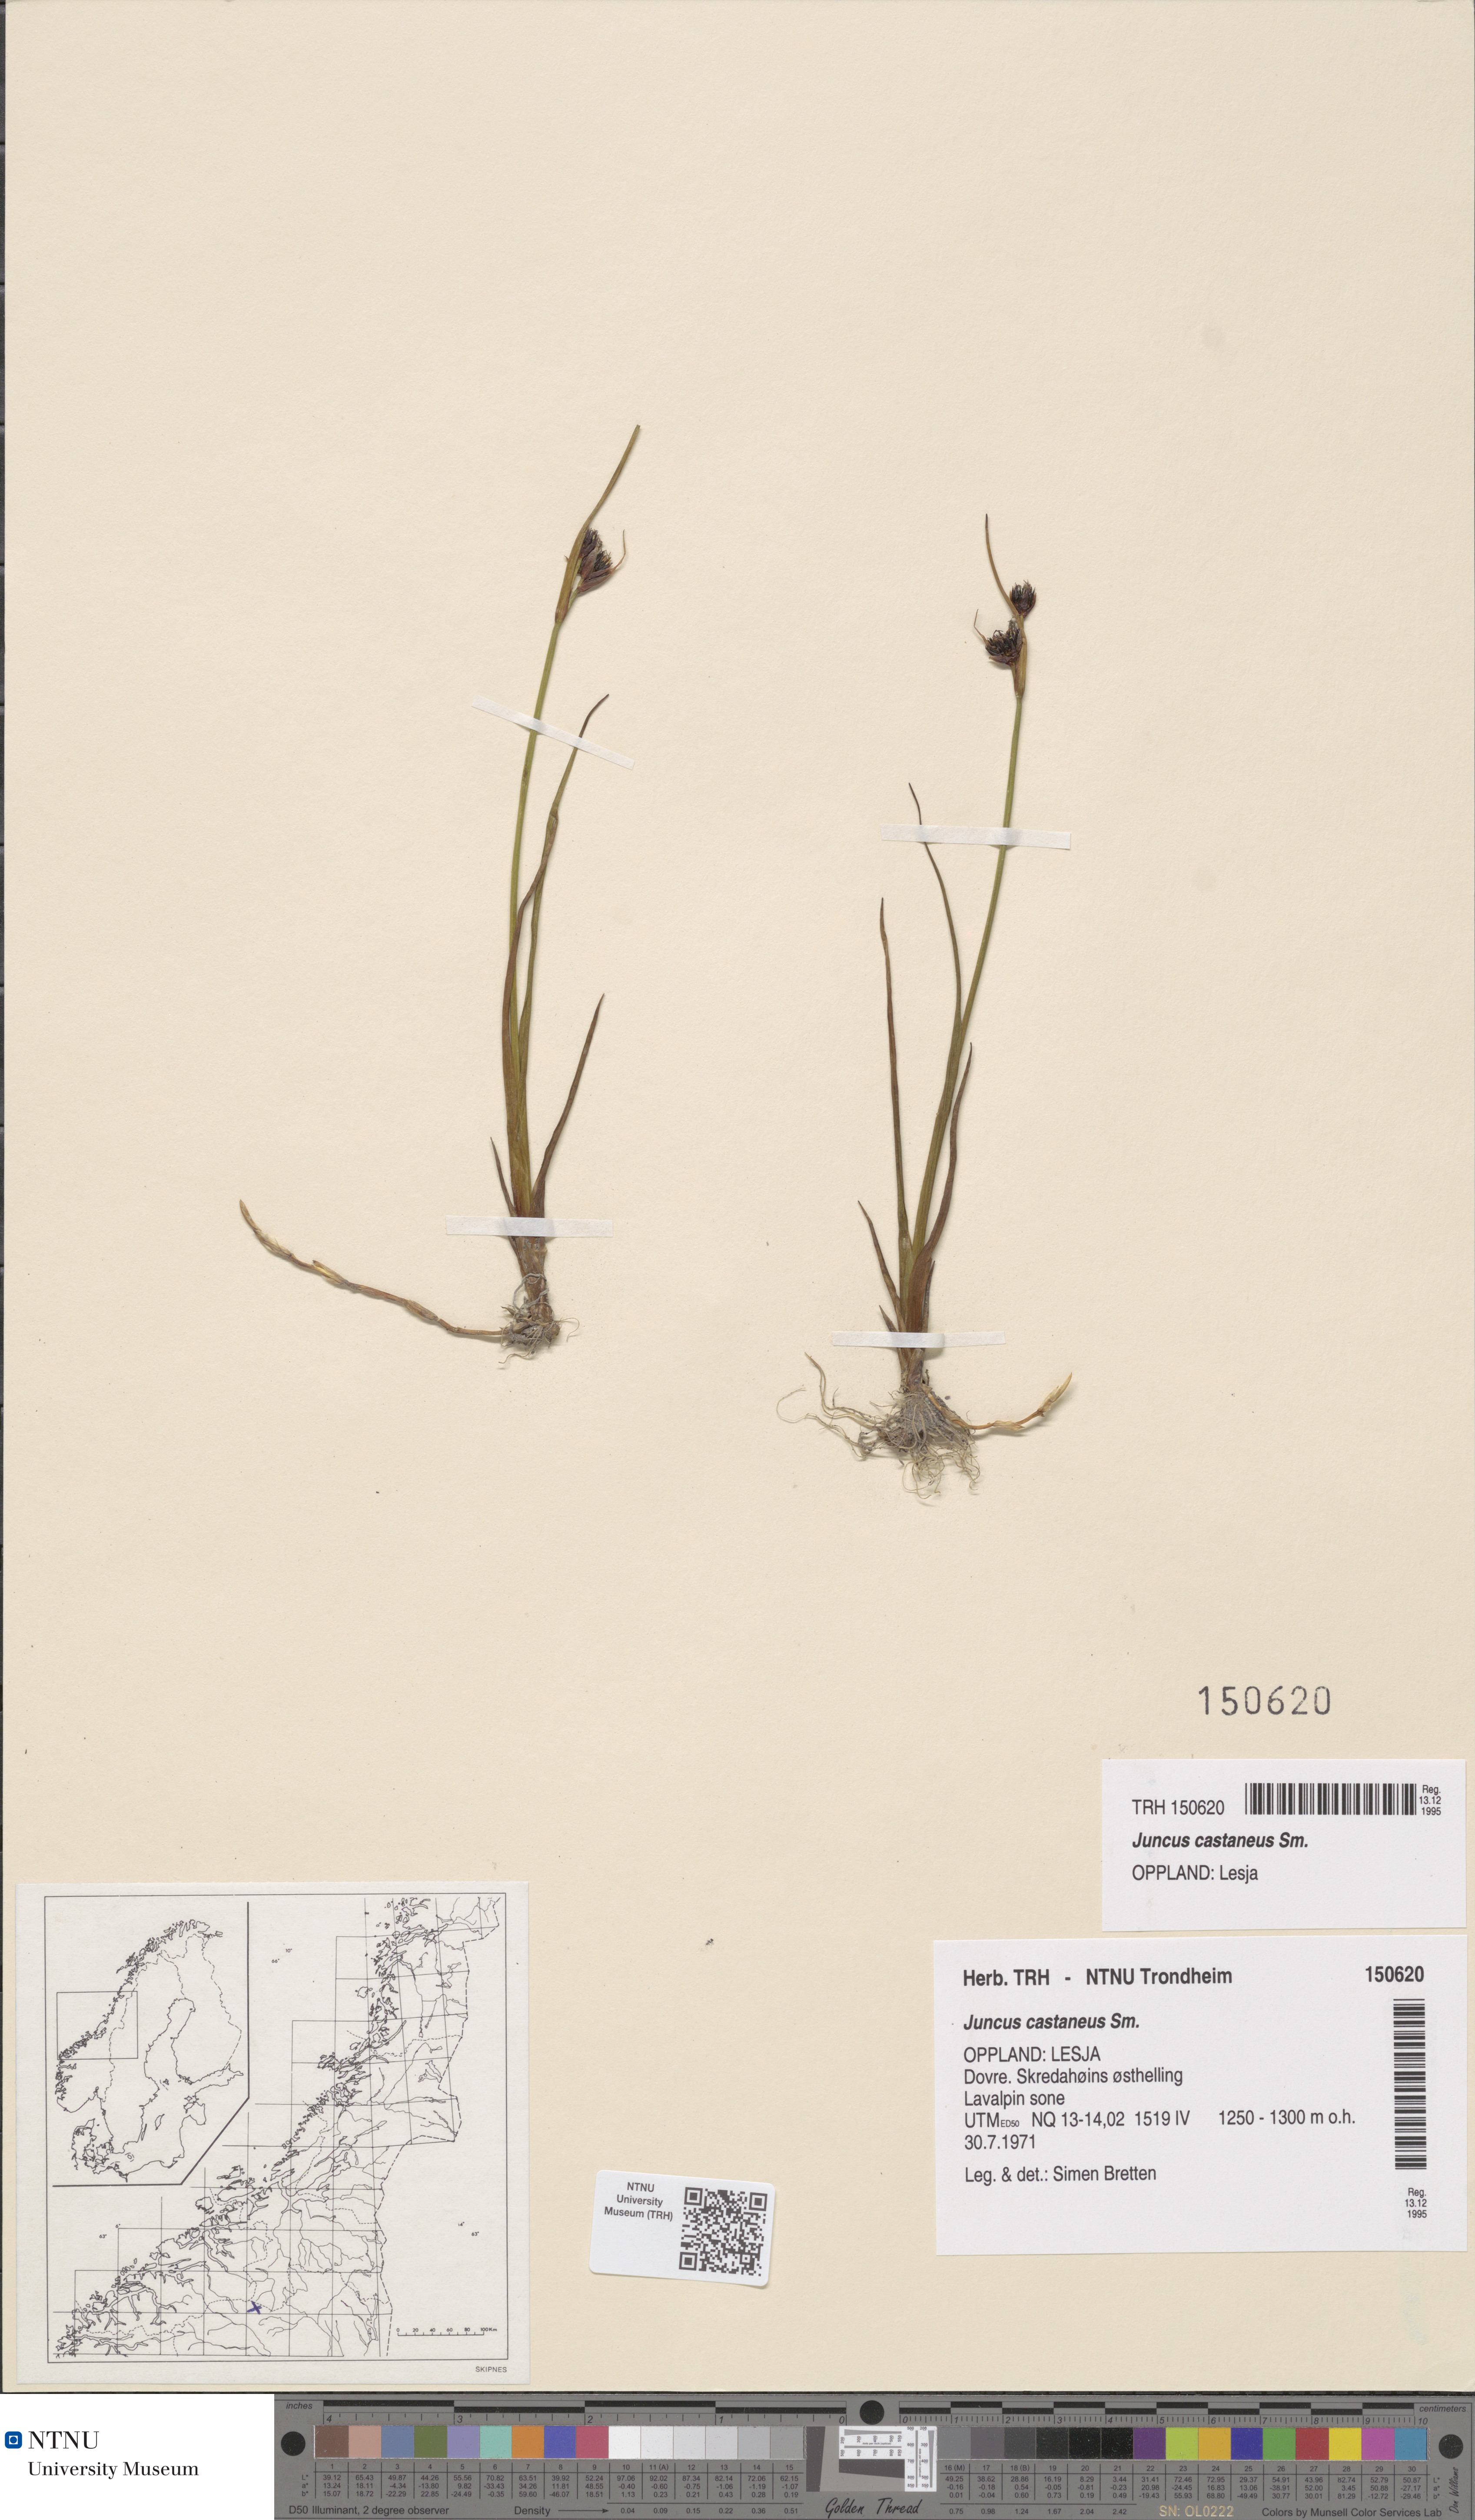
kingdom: Plantae
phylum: Tracheophyta
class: Liliopsida
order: Poales
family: Juncaceae
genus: Juncus
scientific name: Juncus castaneus
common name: Chestnut rush
